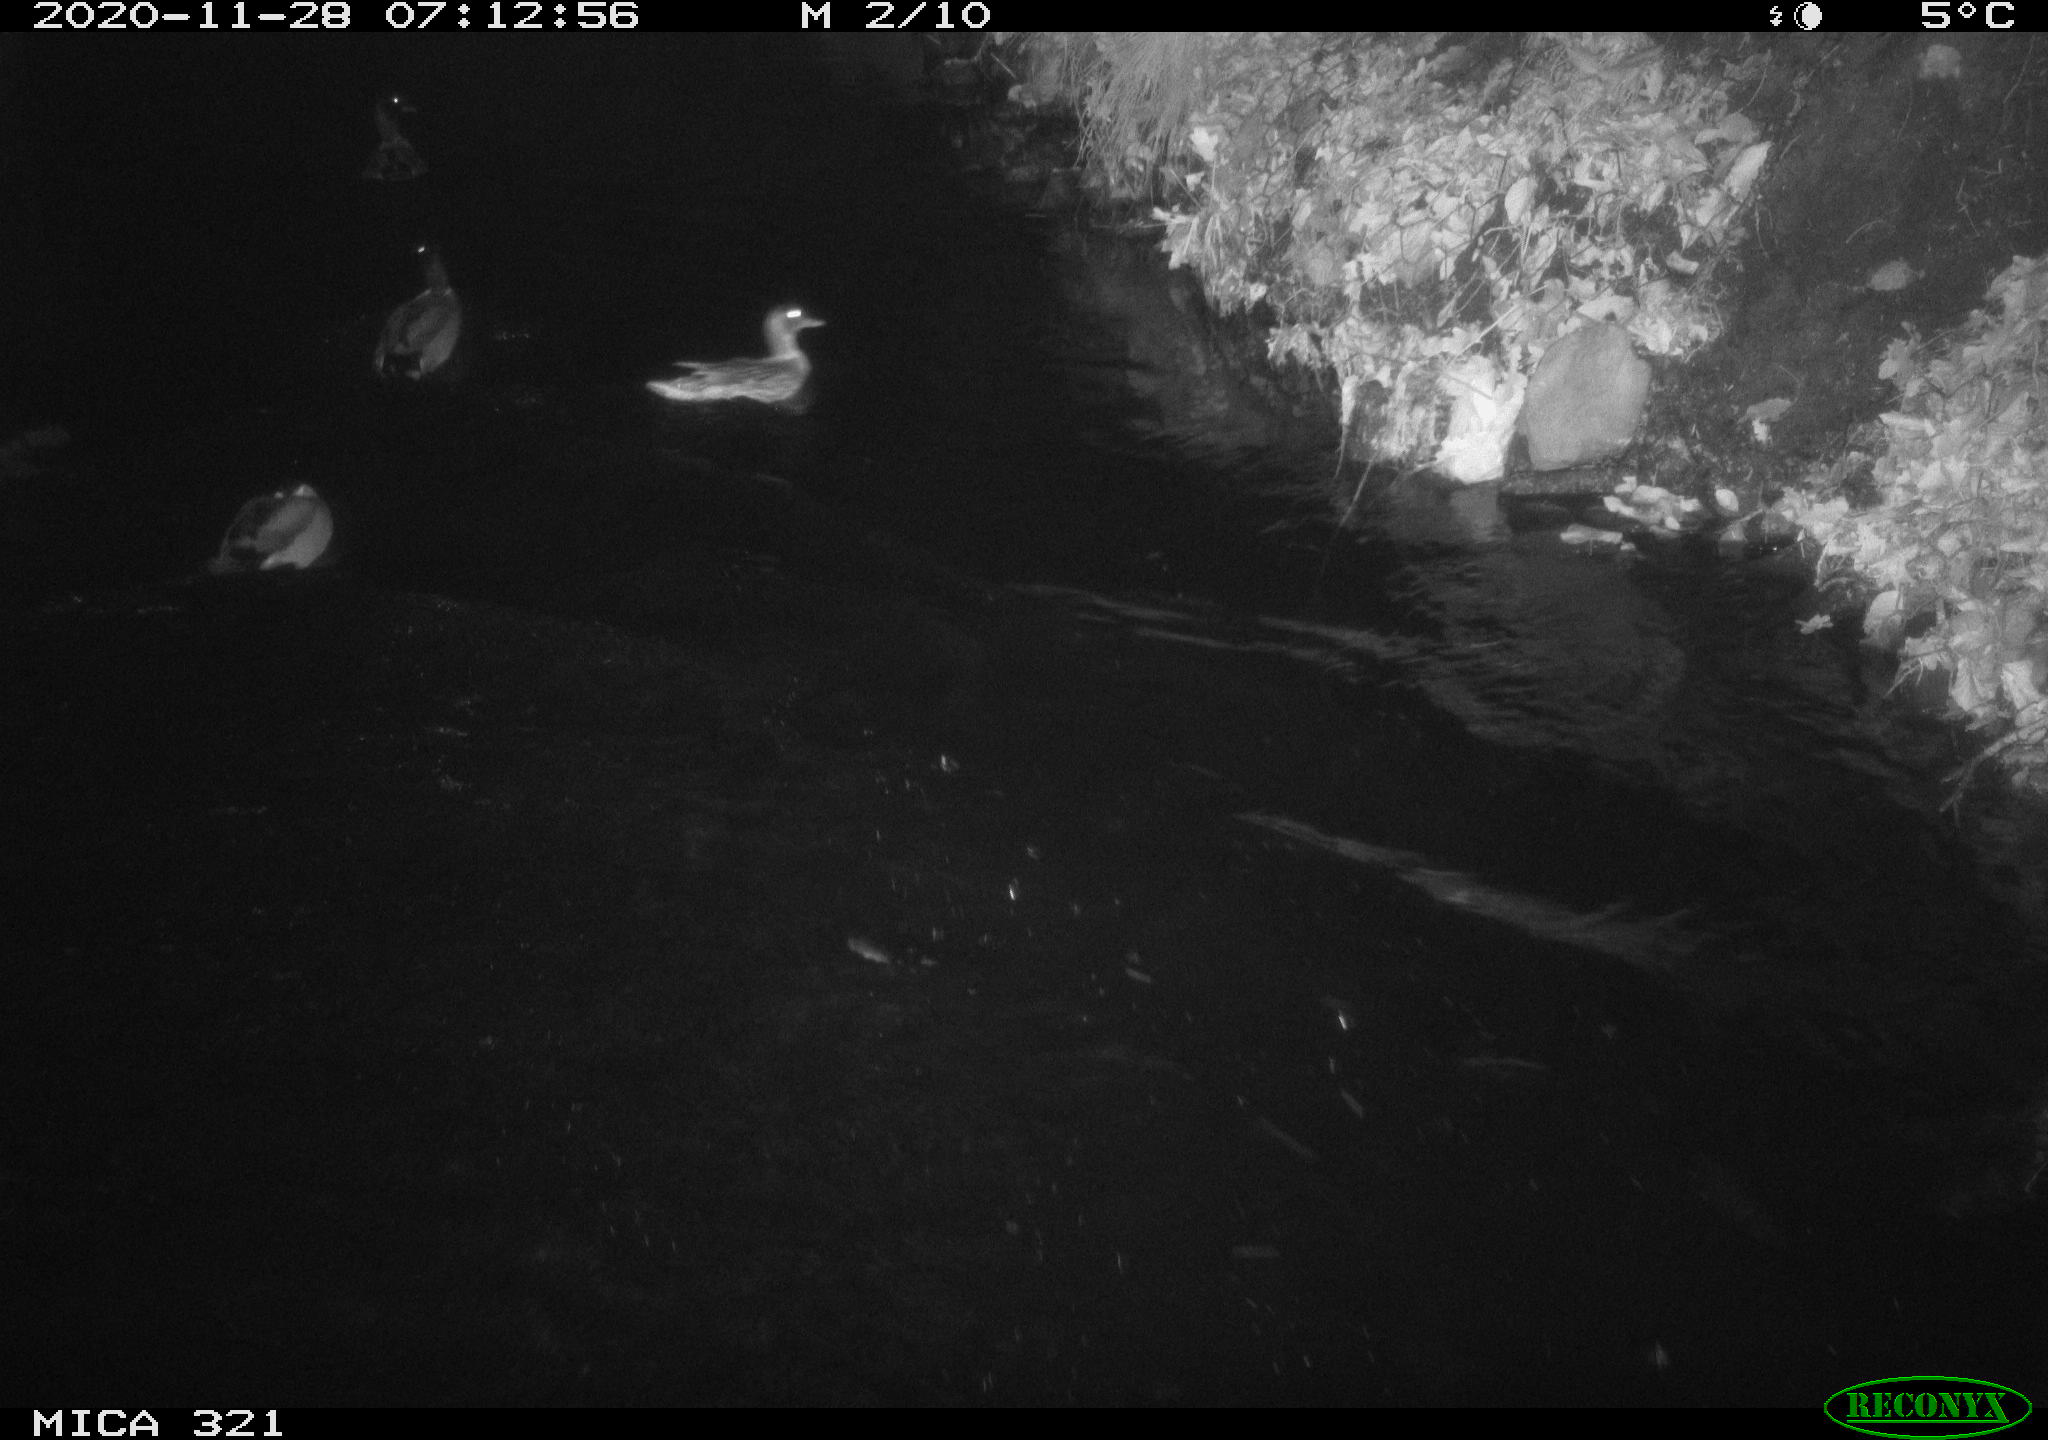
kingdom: Animalia
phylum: Chordata
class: Aves
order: Anseriformes
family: Anatidae
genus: Anas
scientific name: Anas platyrhynchos
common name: Mallard
